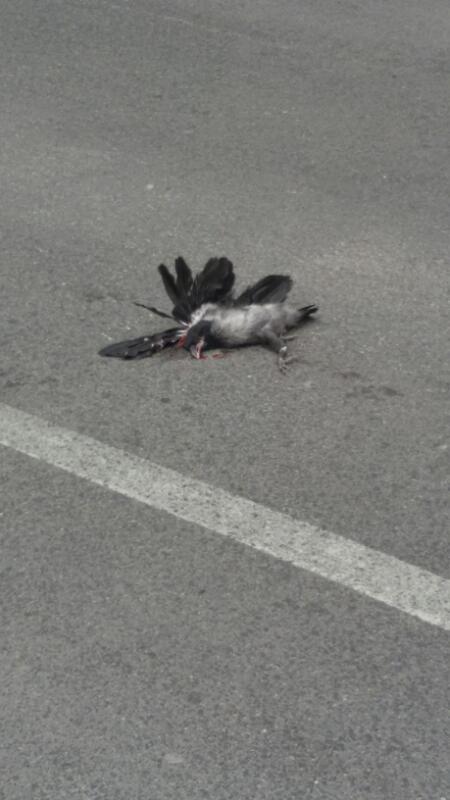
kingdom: Animalia
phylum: Chordata
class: Aves
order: Passeriformes
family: Corvidae
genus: Corvus
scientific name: Corvus corone
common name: Carrion crow
